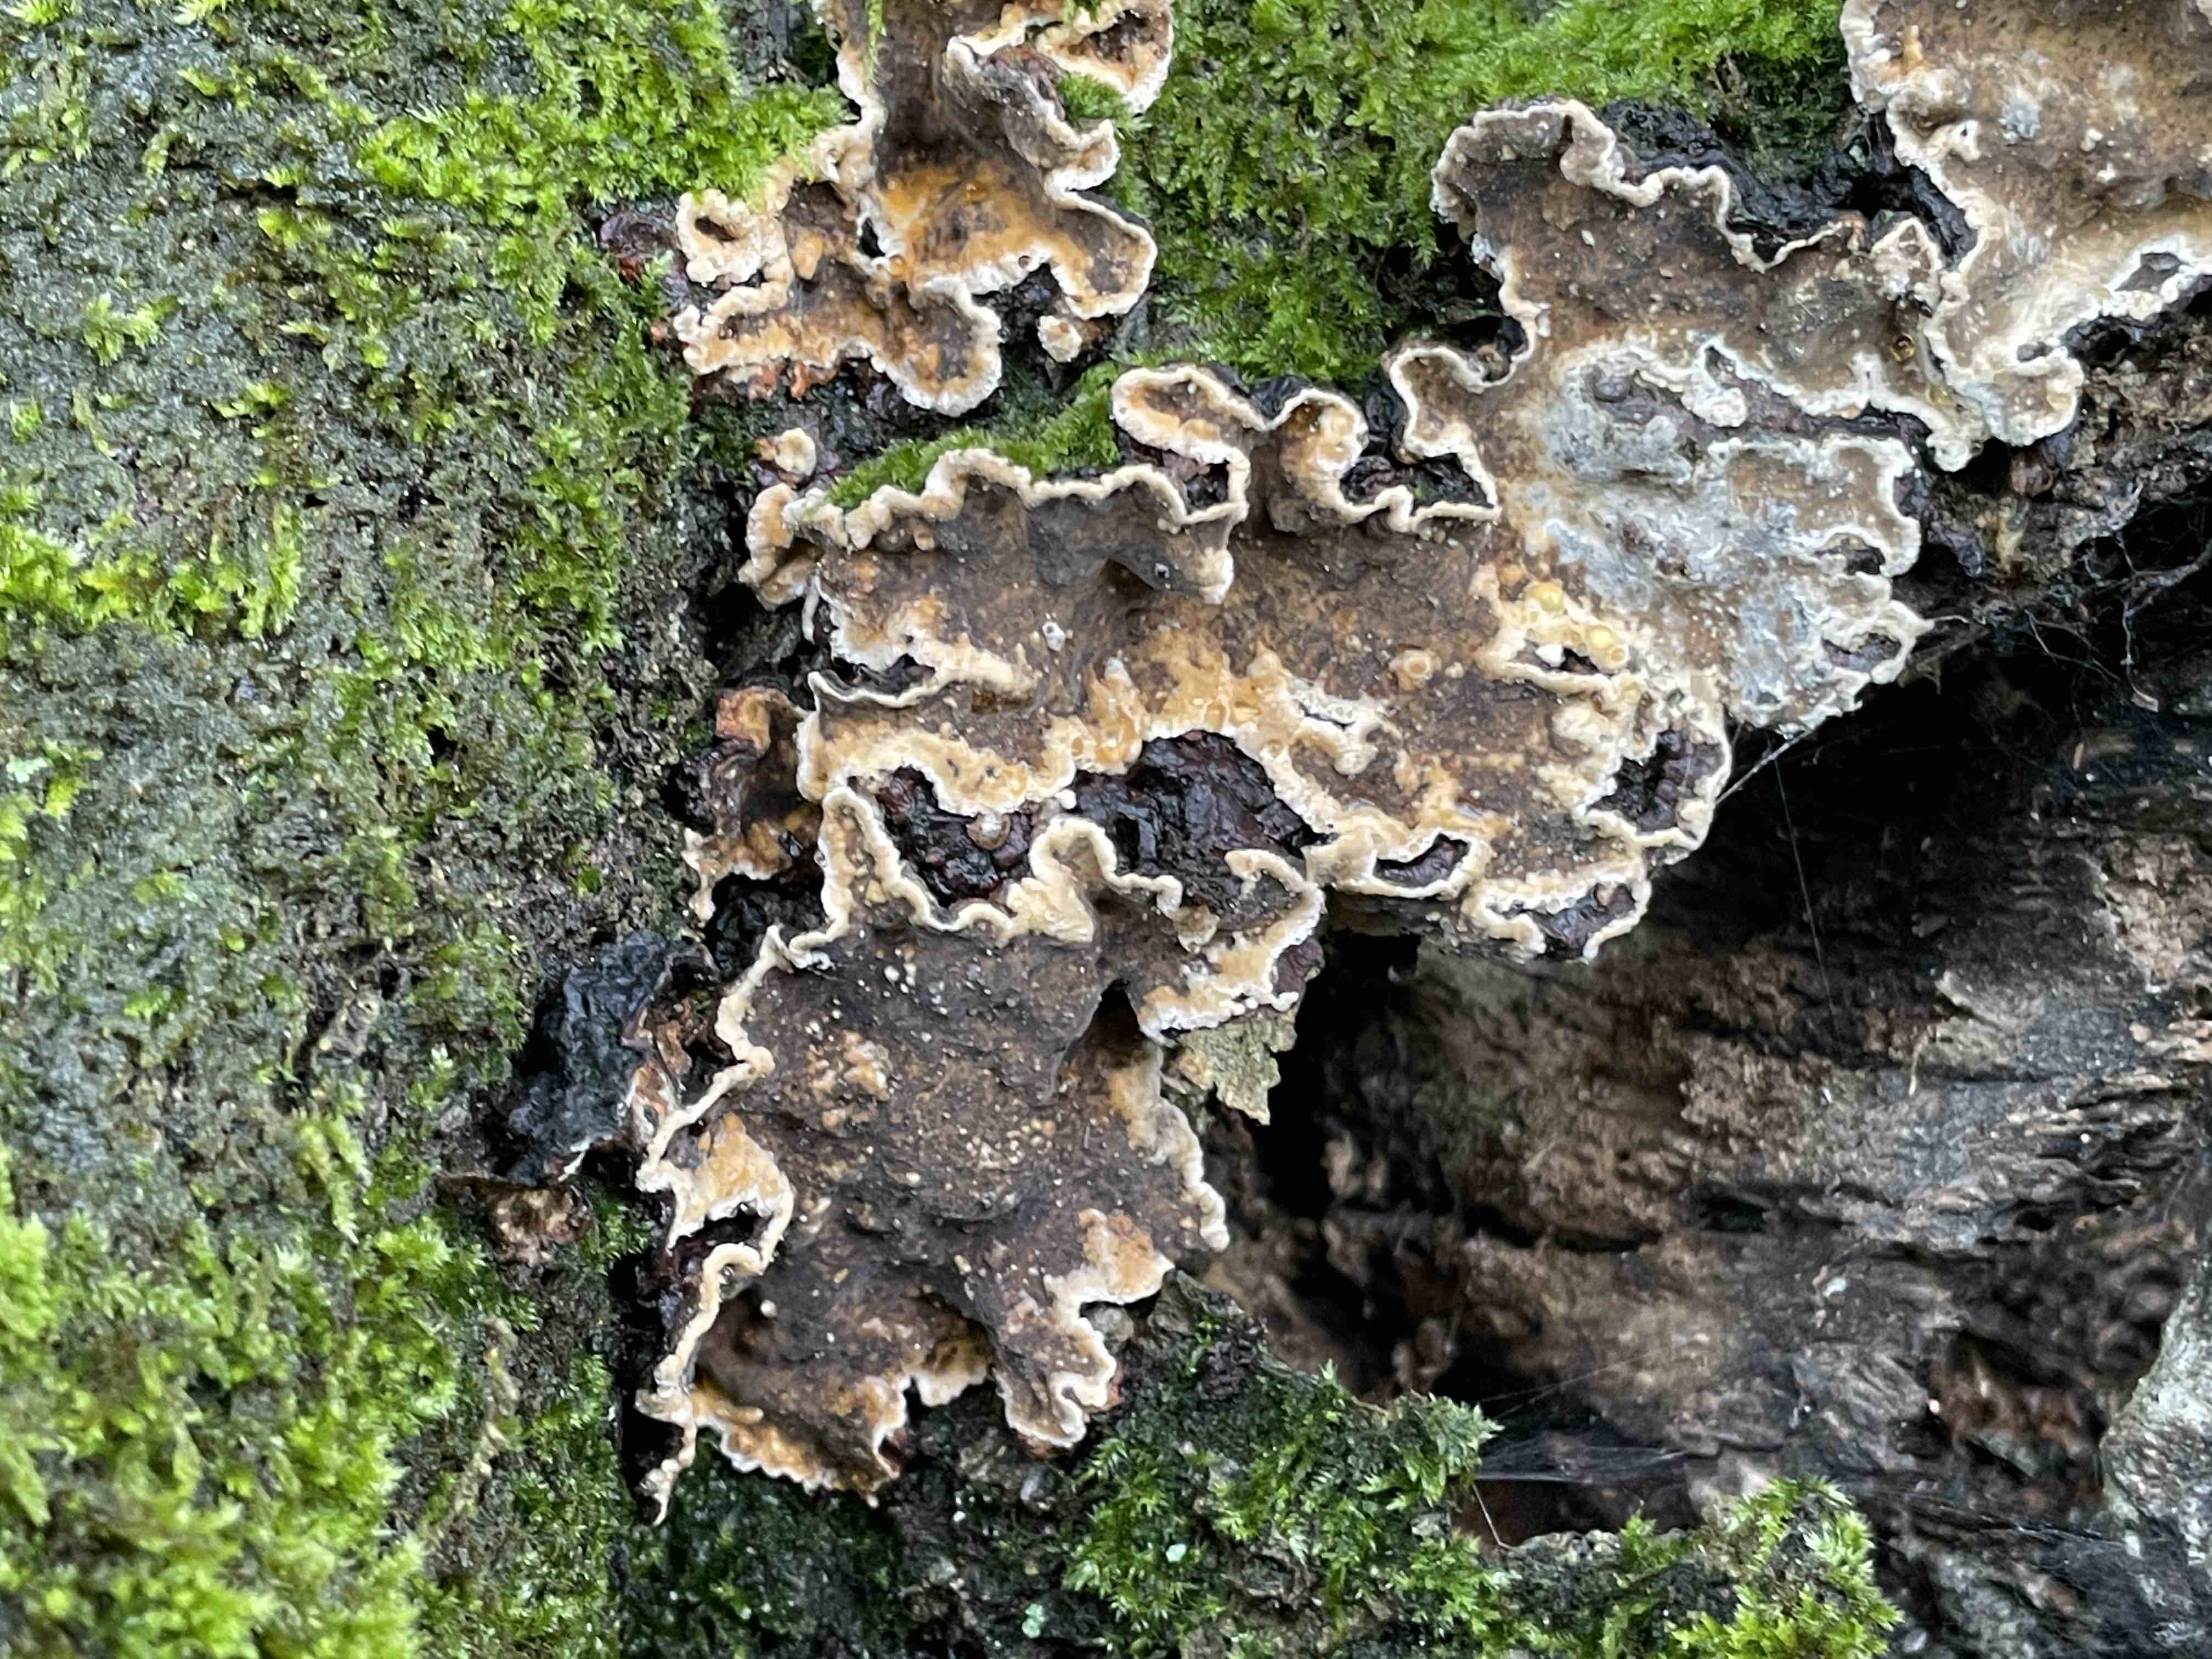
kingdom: Fungi
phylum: Basidiomycota
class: Agaricomycetes
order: Agaricales
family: Cyphellaceae
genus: Chondrostereum
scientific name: Chondrostereum purpureum
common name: purpurlædersvamp
